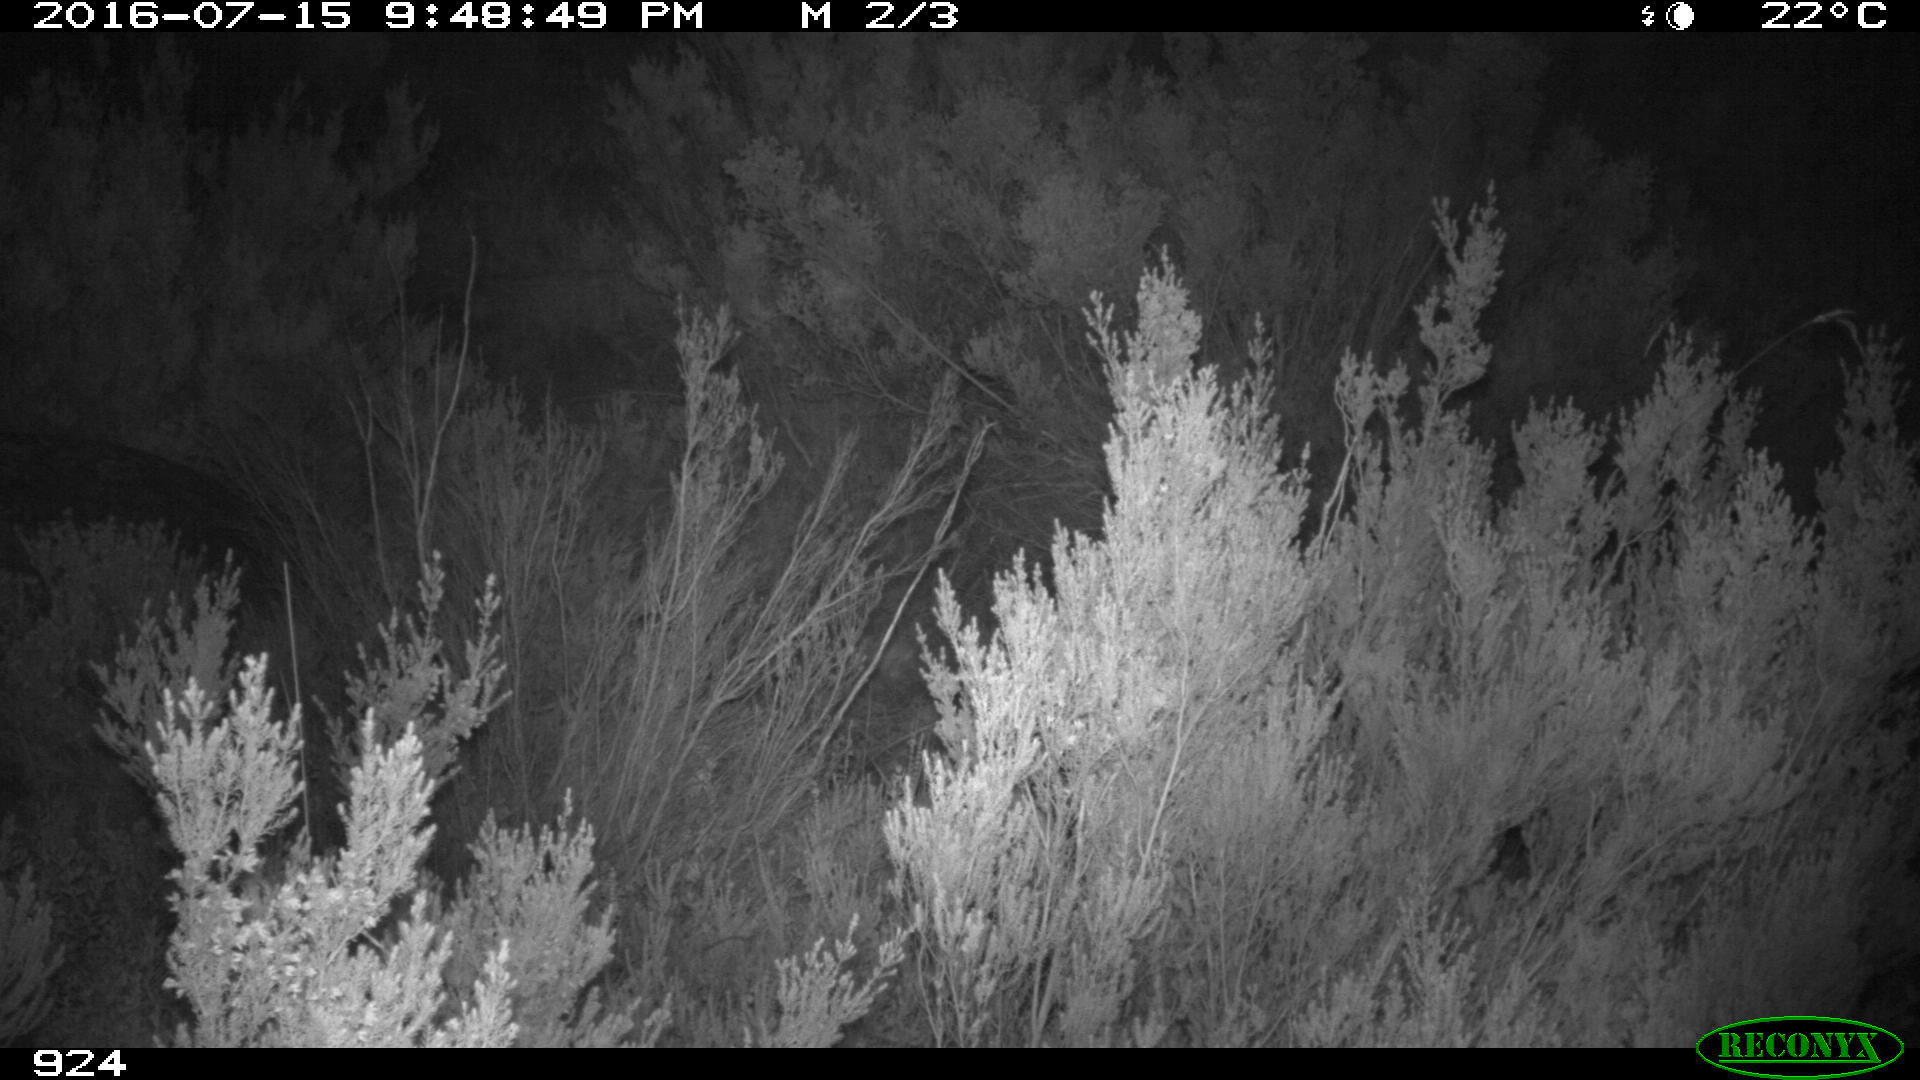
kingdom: Animalia
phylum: Chordata
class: Mammalia
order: Perissodactyla
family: Equidae
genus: Equus
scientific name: Equus caballus
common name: Horse
